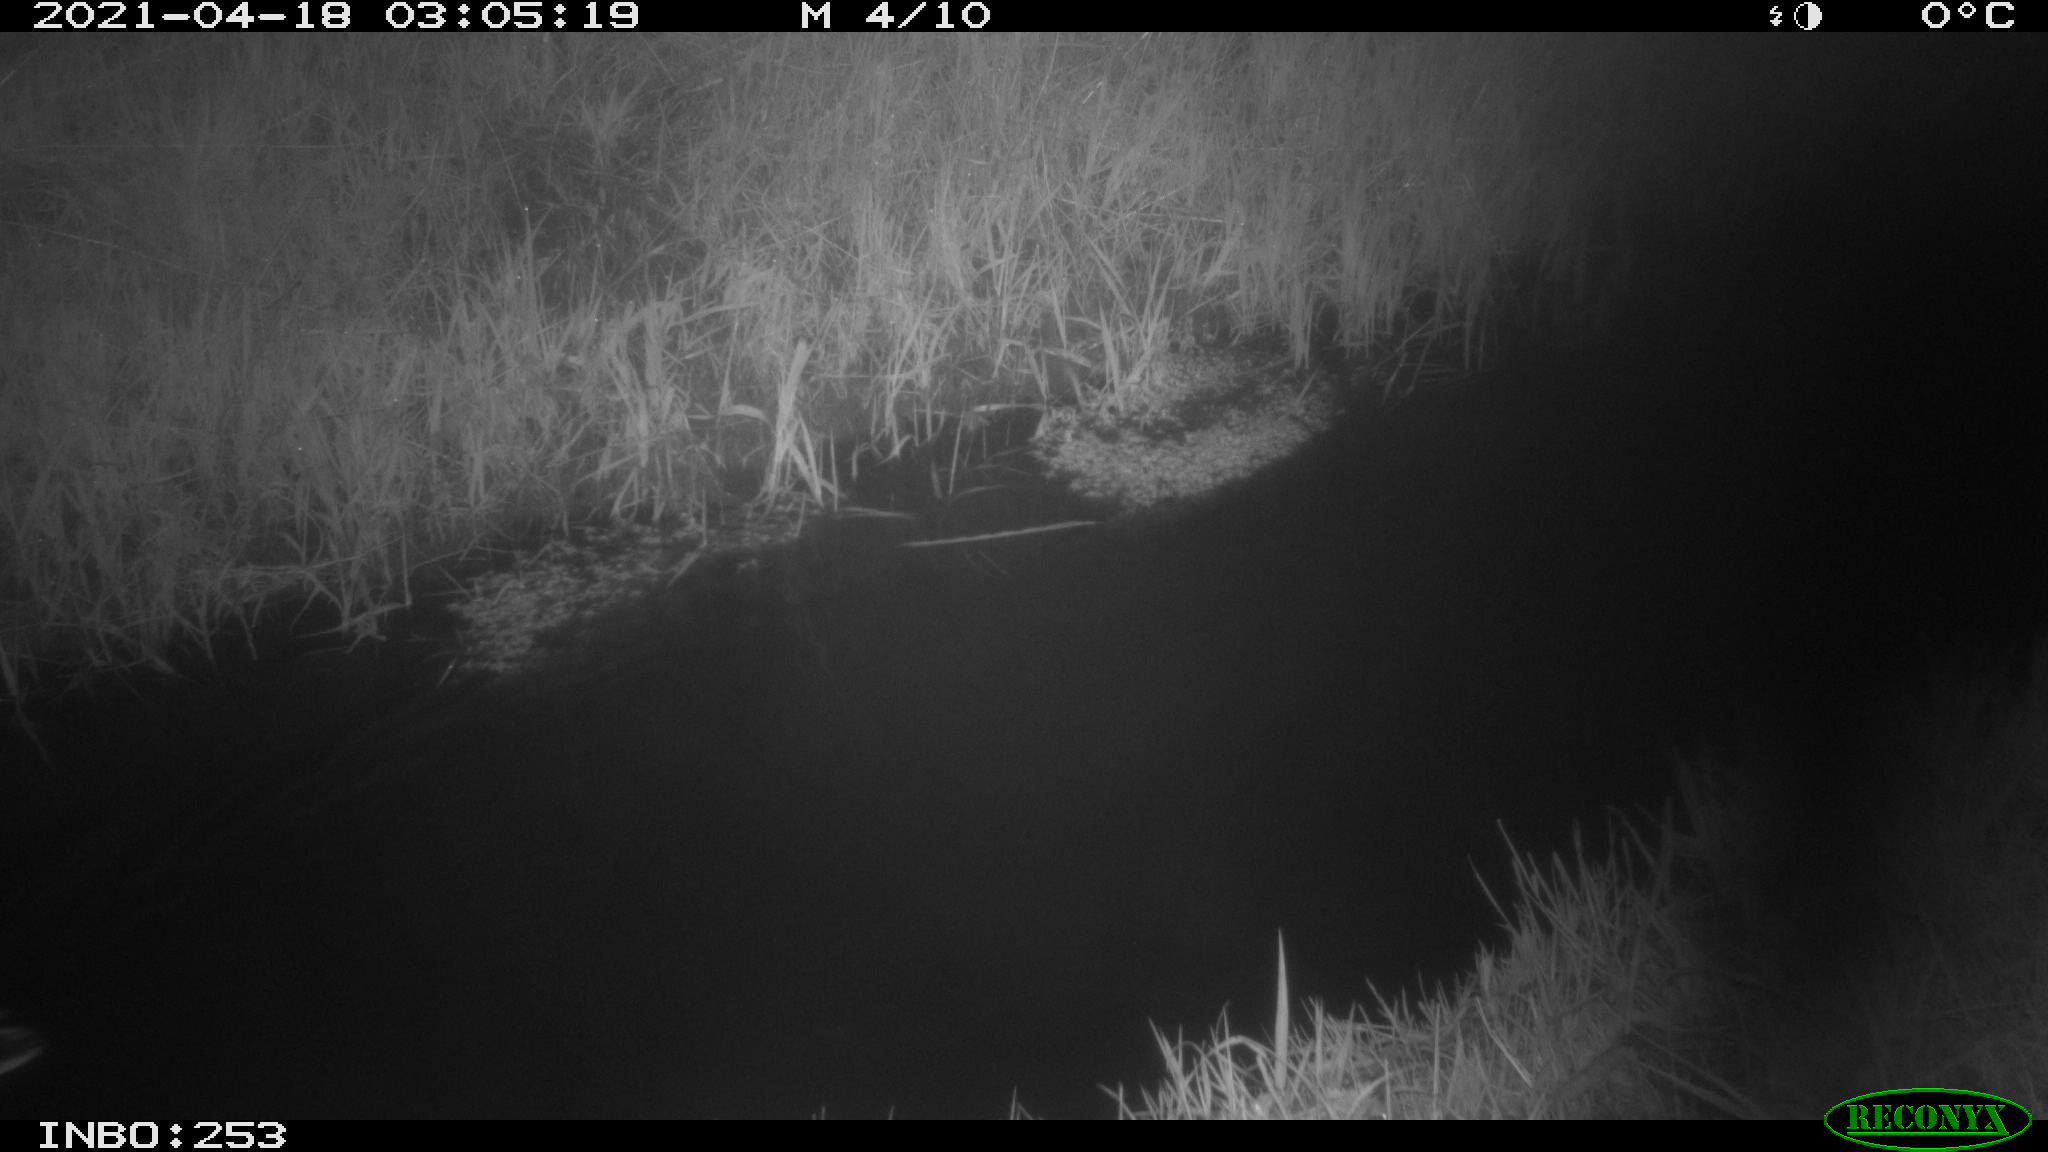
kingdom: Animalia
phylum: Chordata
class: Aves
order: Anseriformes
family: Anatidae
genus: Anas
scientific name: Anas platyrhynchos
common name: Mallard
